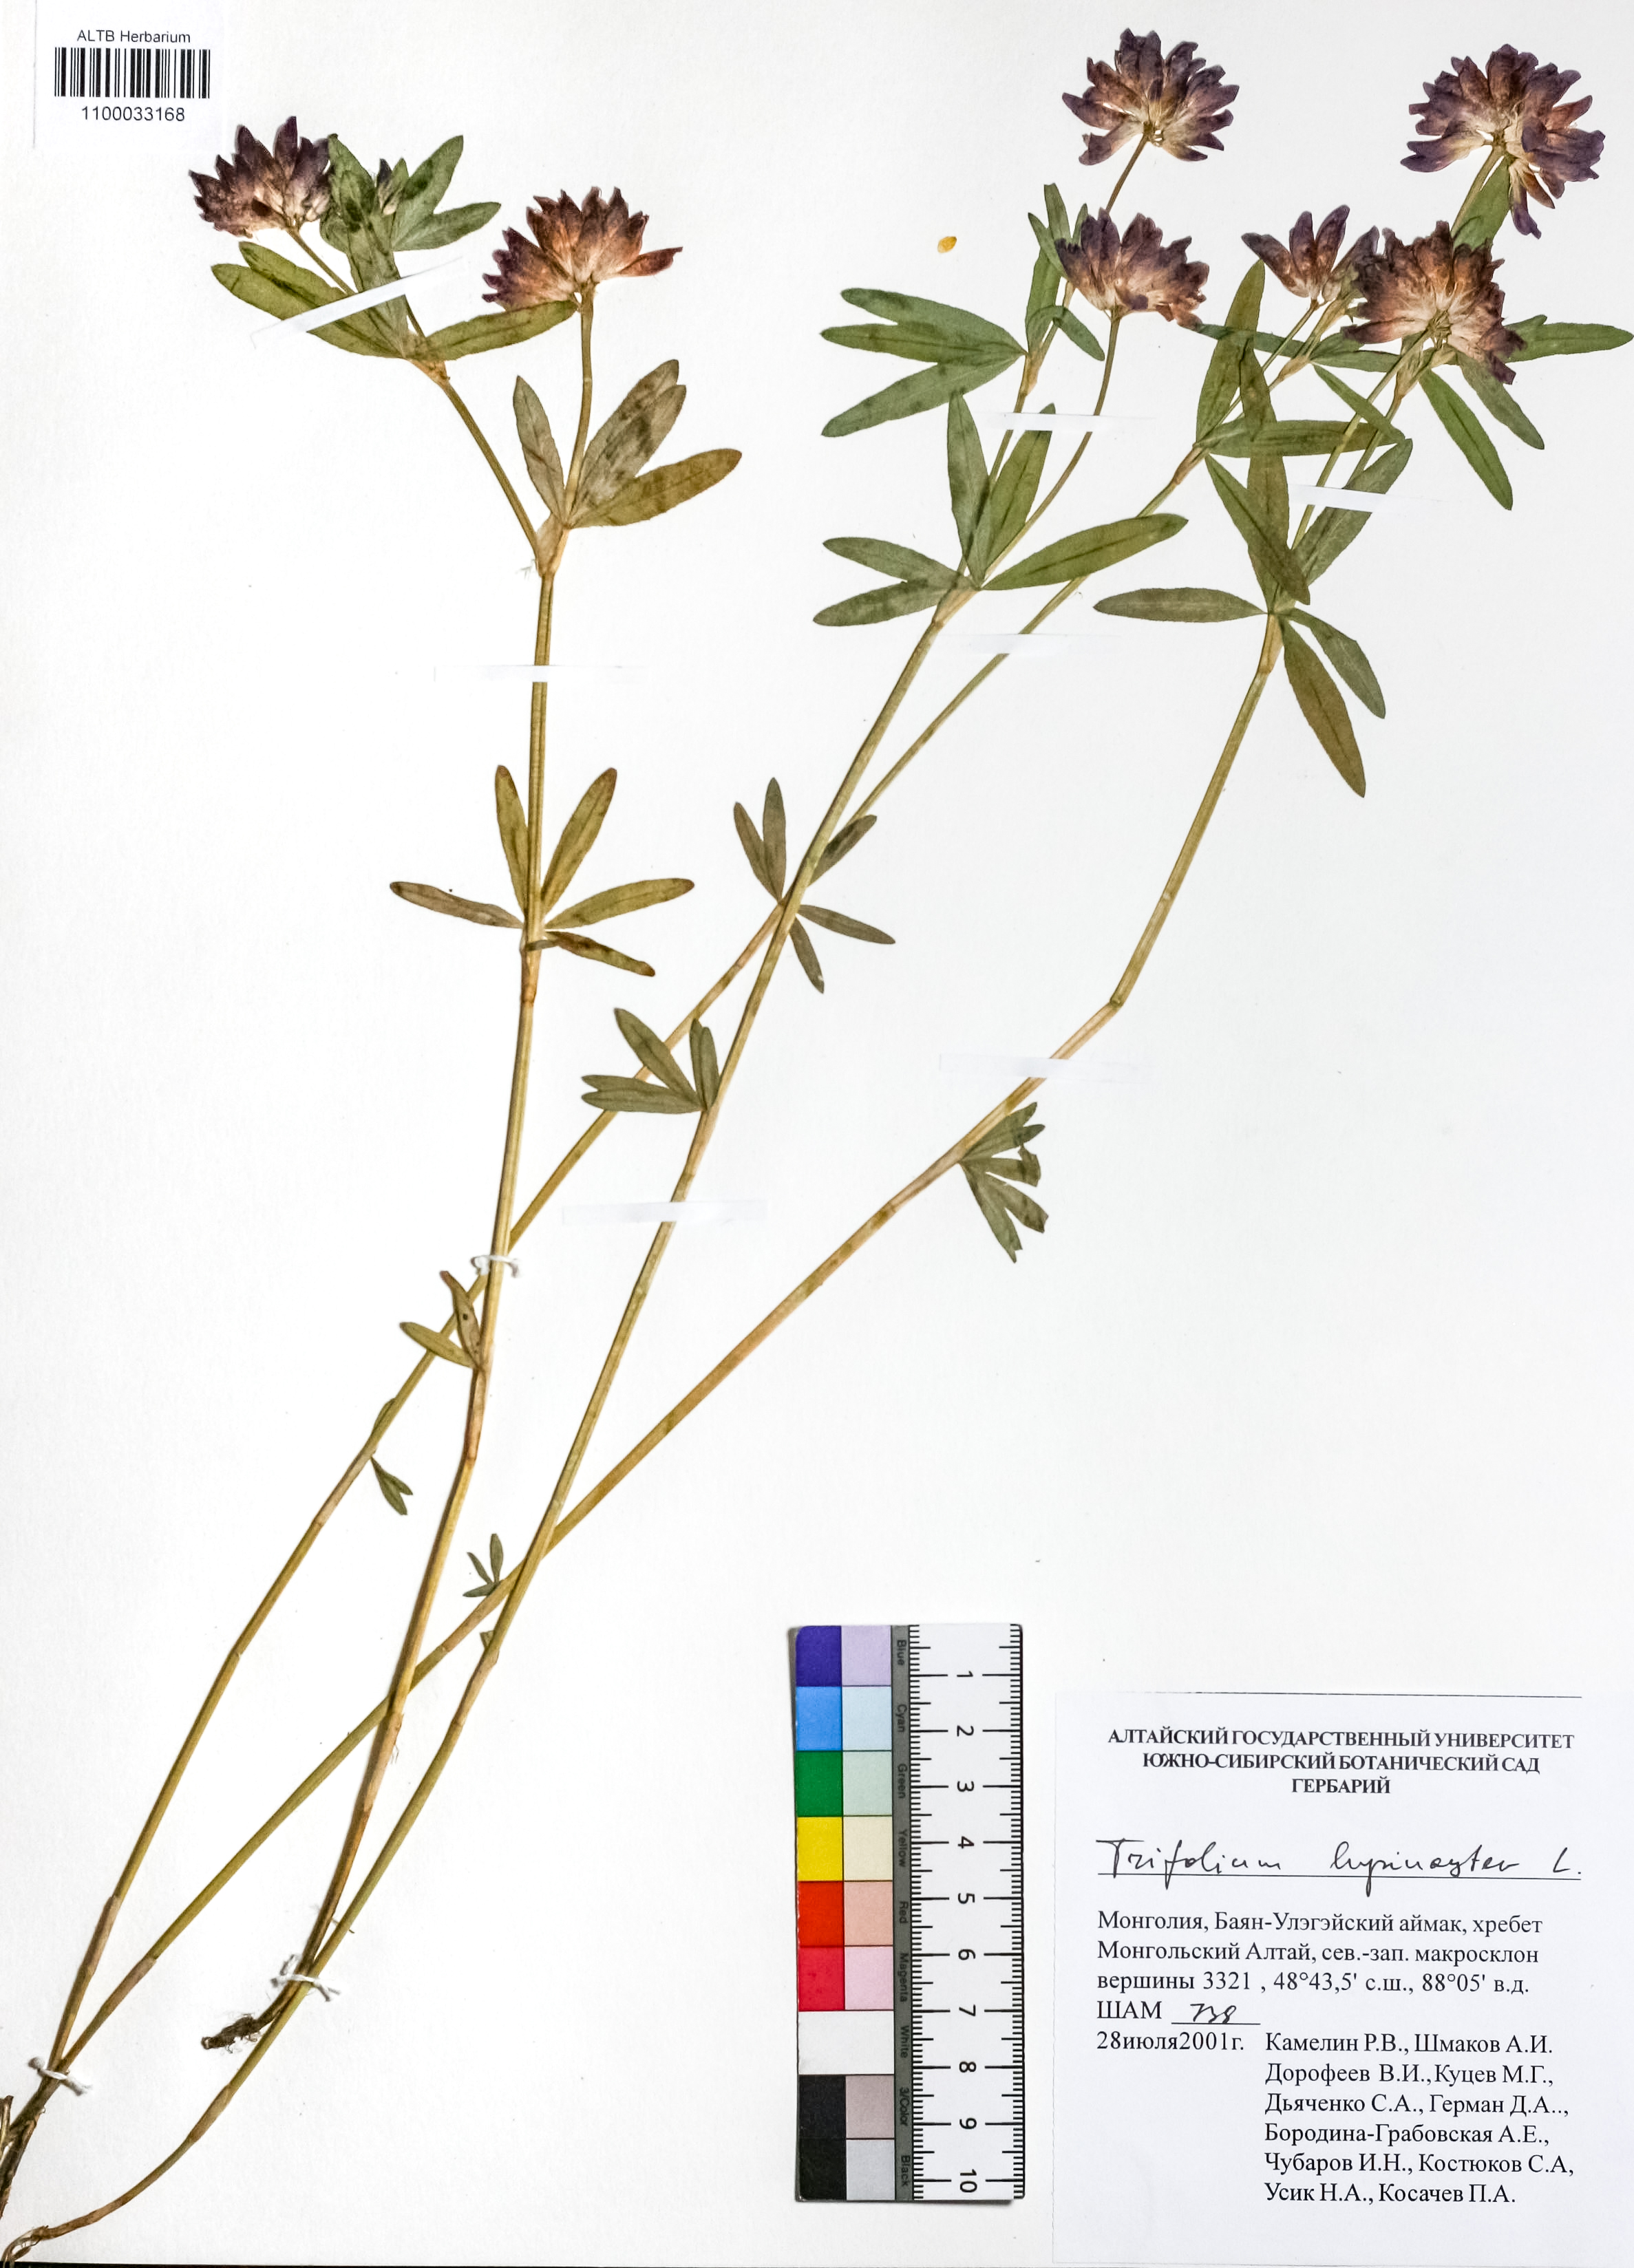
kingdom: Plantae
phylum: Tracheophyta
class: Magnoliopsida
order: Fabales
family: Fabaceae
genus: Trifolium
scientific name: Trifolium lupinaster
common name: Lupine clover
